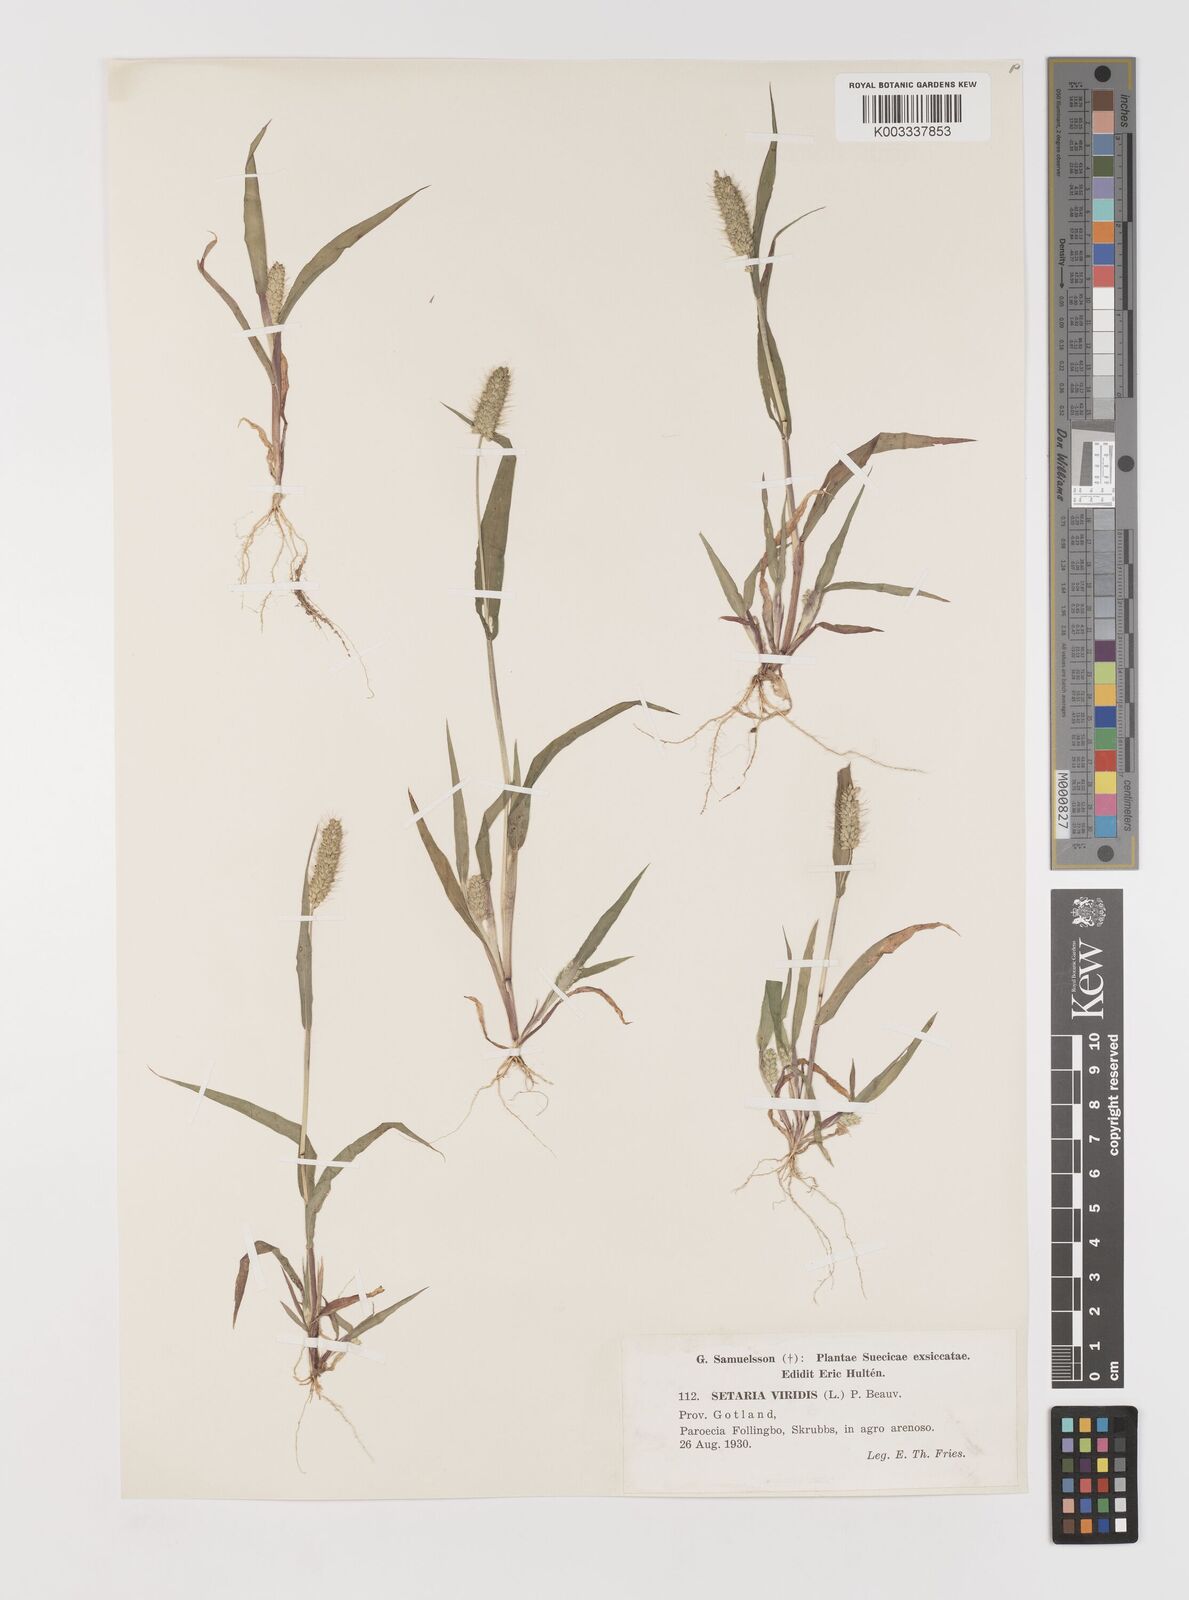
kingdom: Plantae
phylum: Tracheophyta
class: Liliopsida
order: Poales
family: Poaceae
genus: Setaria
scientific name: Setaria viridis
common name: Green bristlegrass
